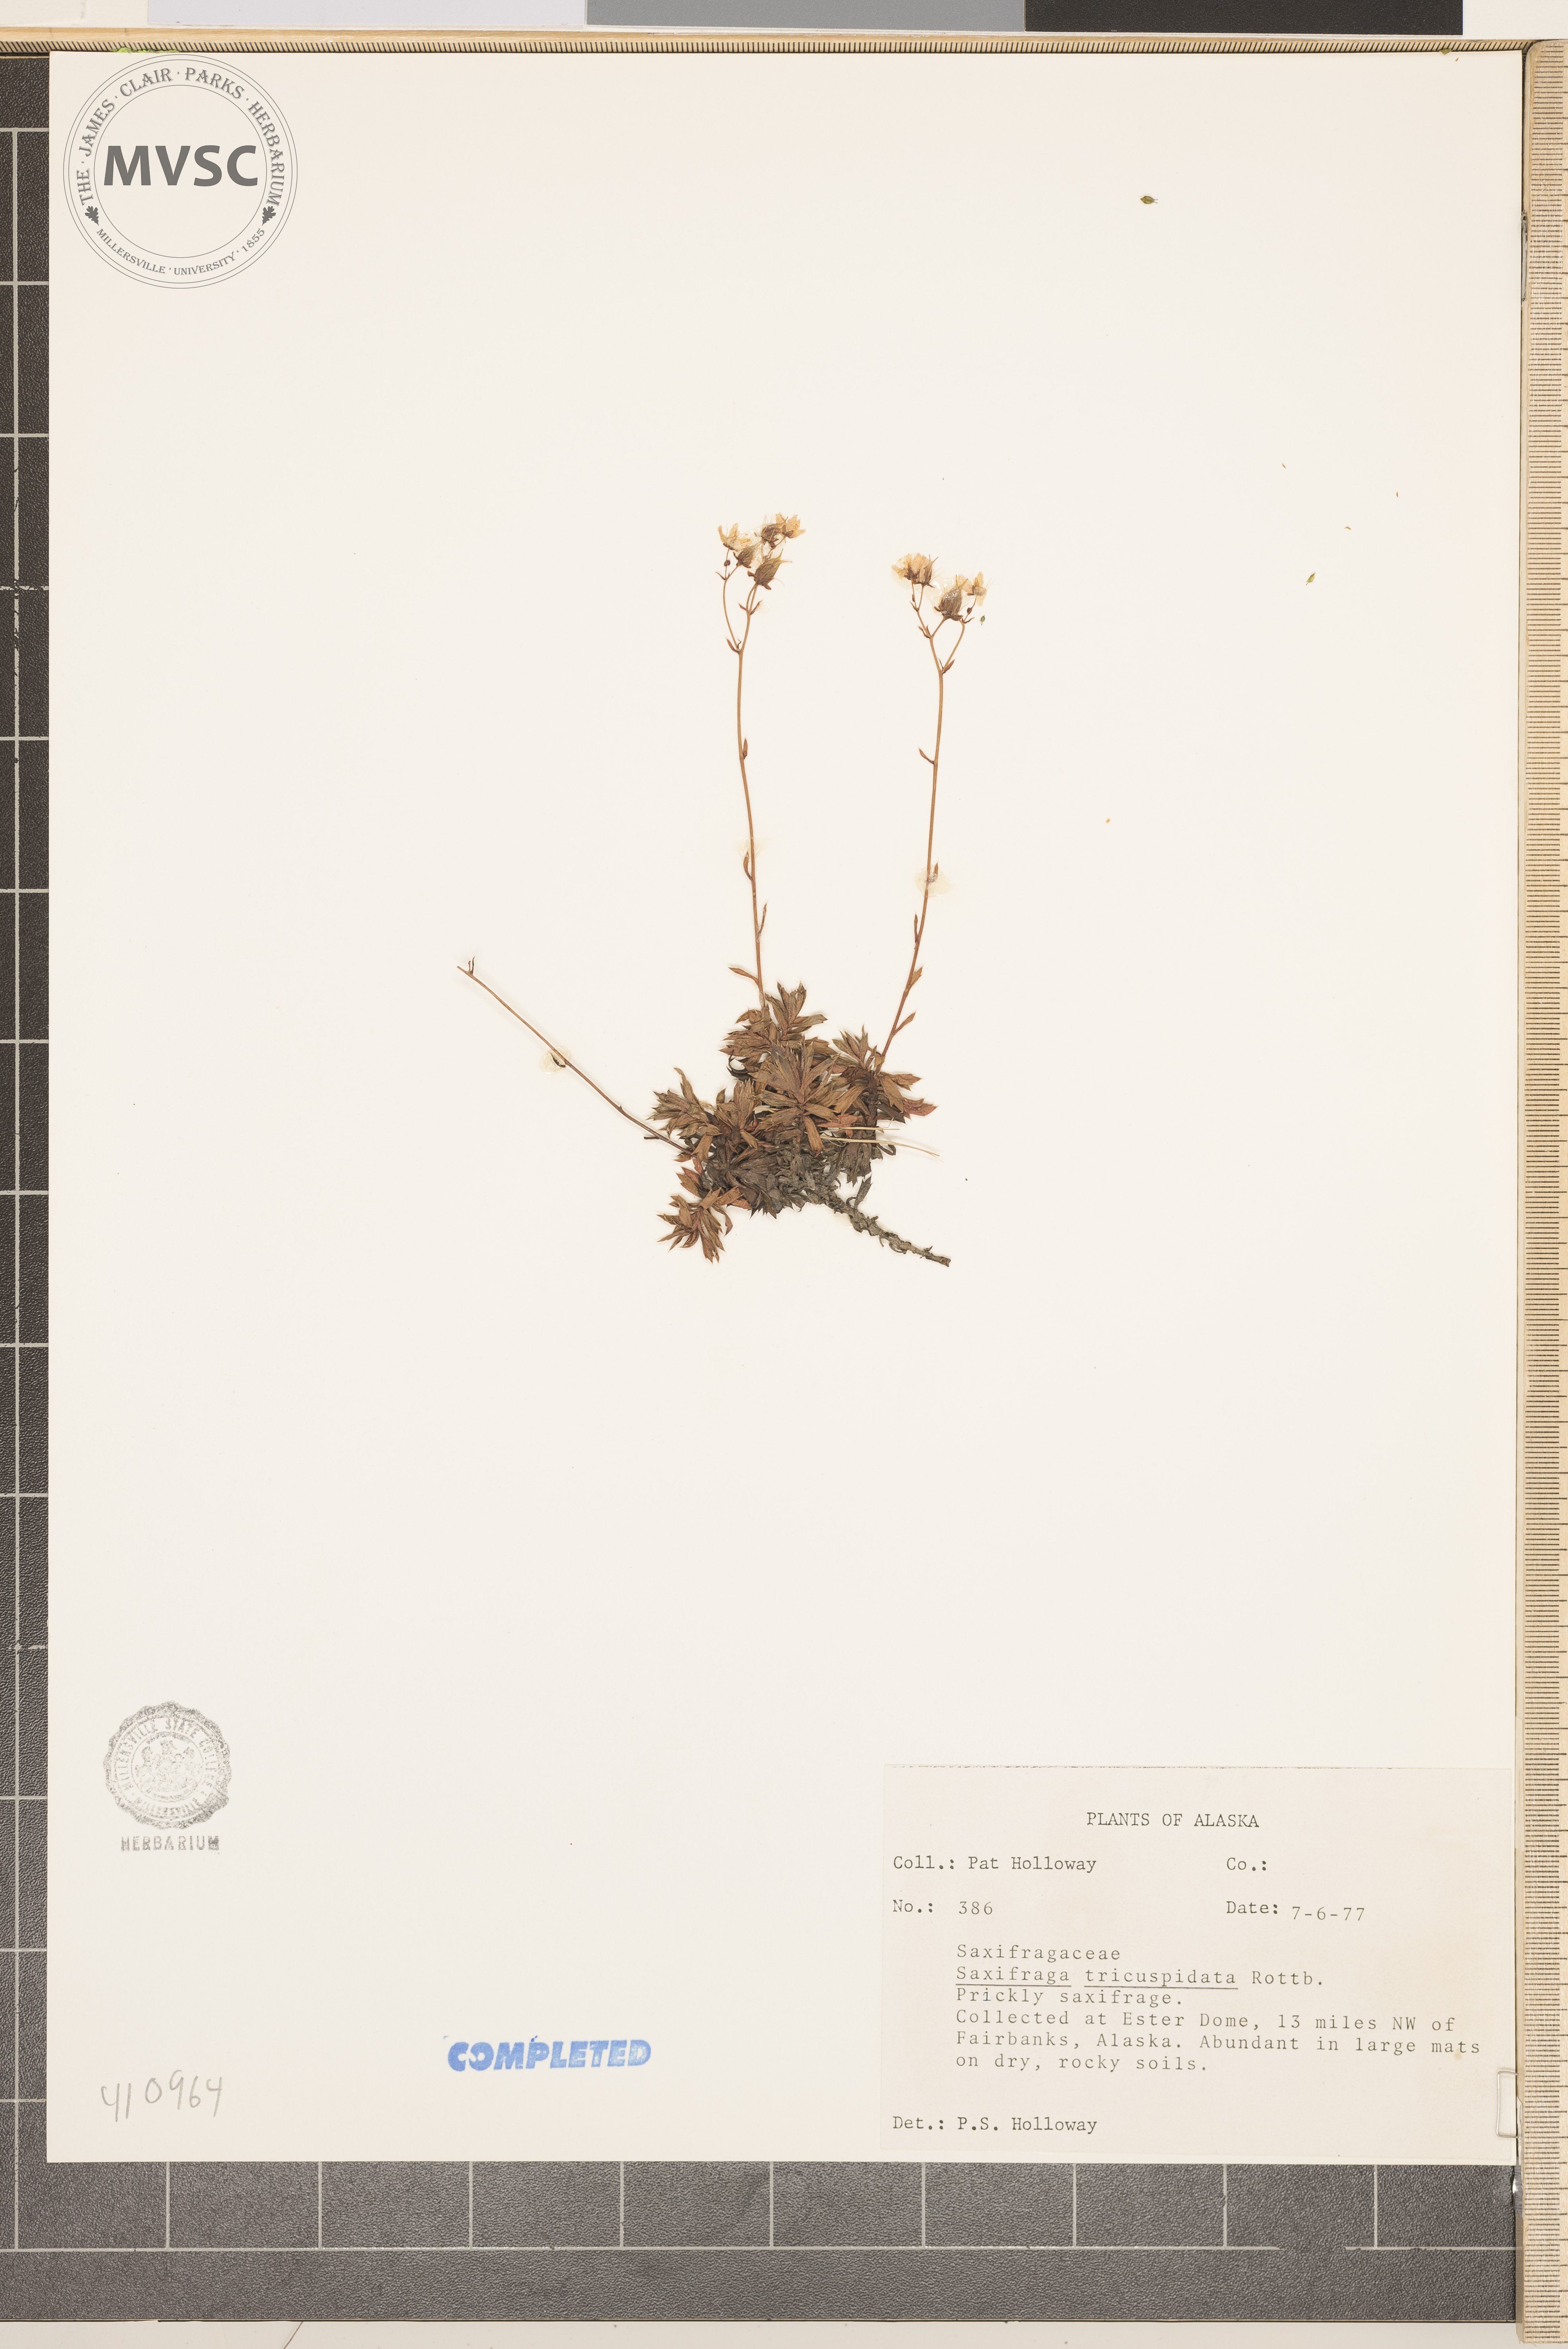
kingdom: Plantae
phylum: Tracheophyta
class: Magnoliopsida
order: Saxifragales
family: Saxifragaceae
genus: Saxifraga
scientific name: Saxifraga tricuspidata
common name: Prickly saxifrage
